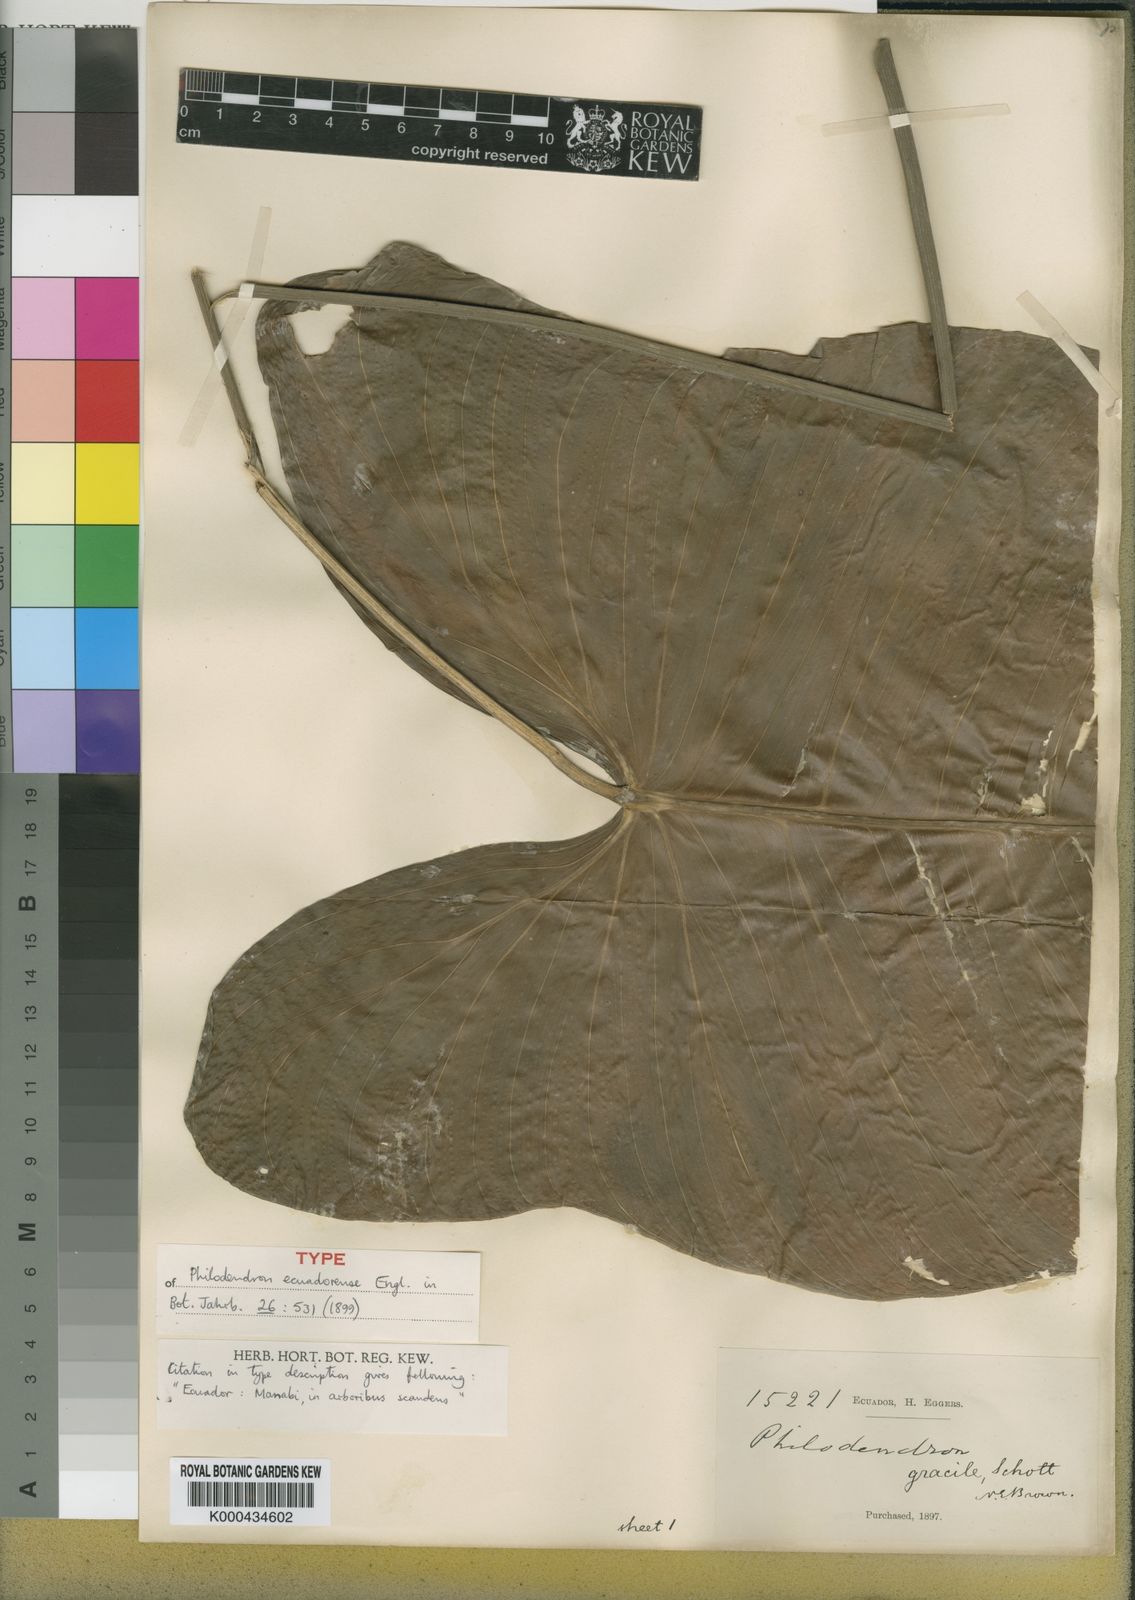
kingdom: Plantae
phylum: Tracheophyta
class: Liliopsida
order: Alismatales
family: Araceae
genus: Philodendron
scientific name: Philodendron tenue
